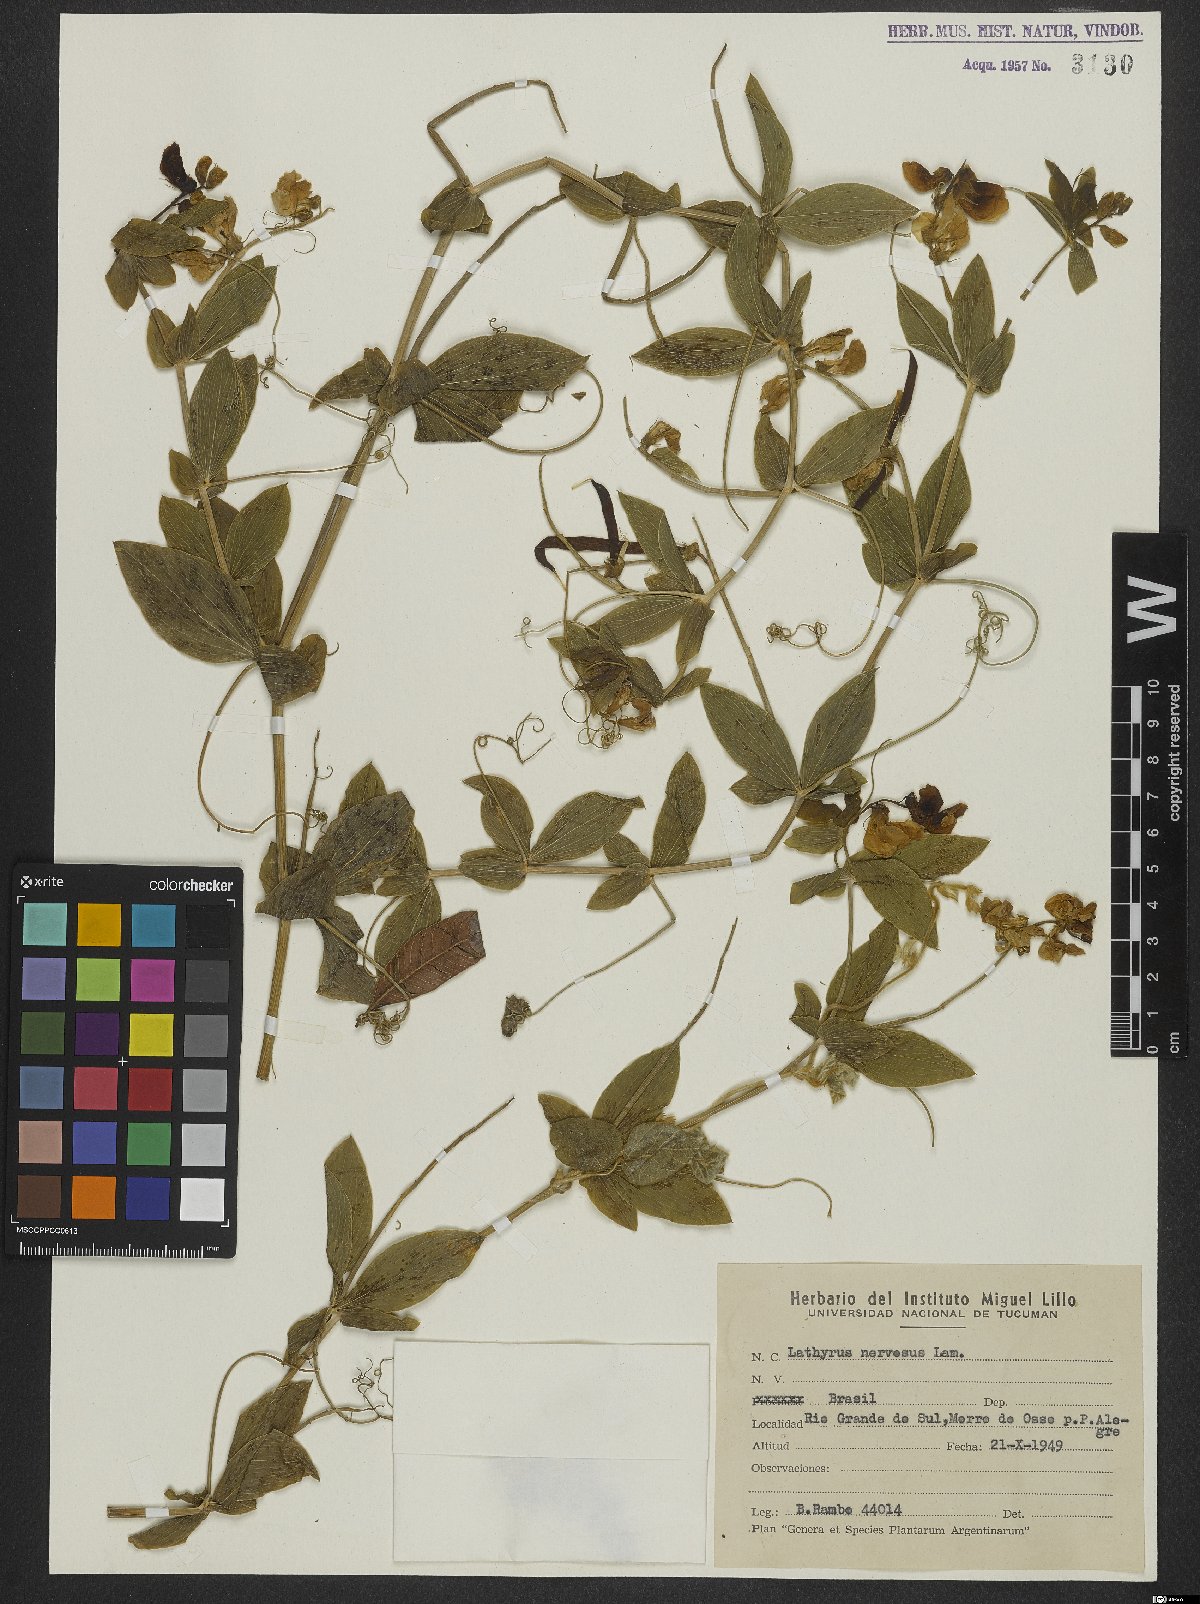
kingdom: Plantae
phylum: Tracheophyta
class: Magnoliopsida
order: Fabales
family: Fabaceae
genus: Lathyrus
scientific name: Lathyrus nervosus
